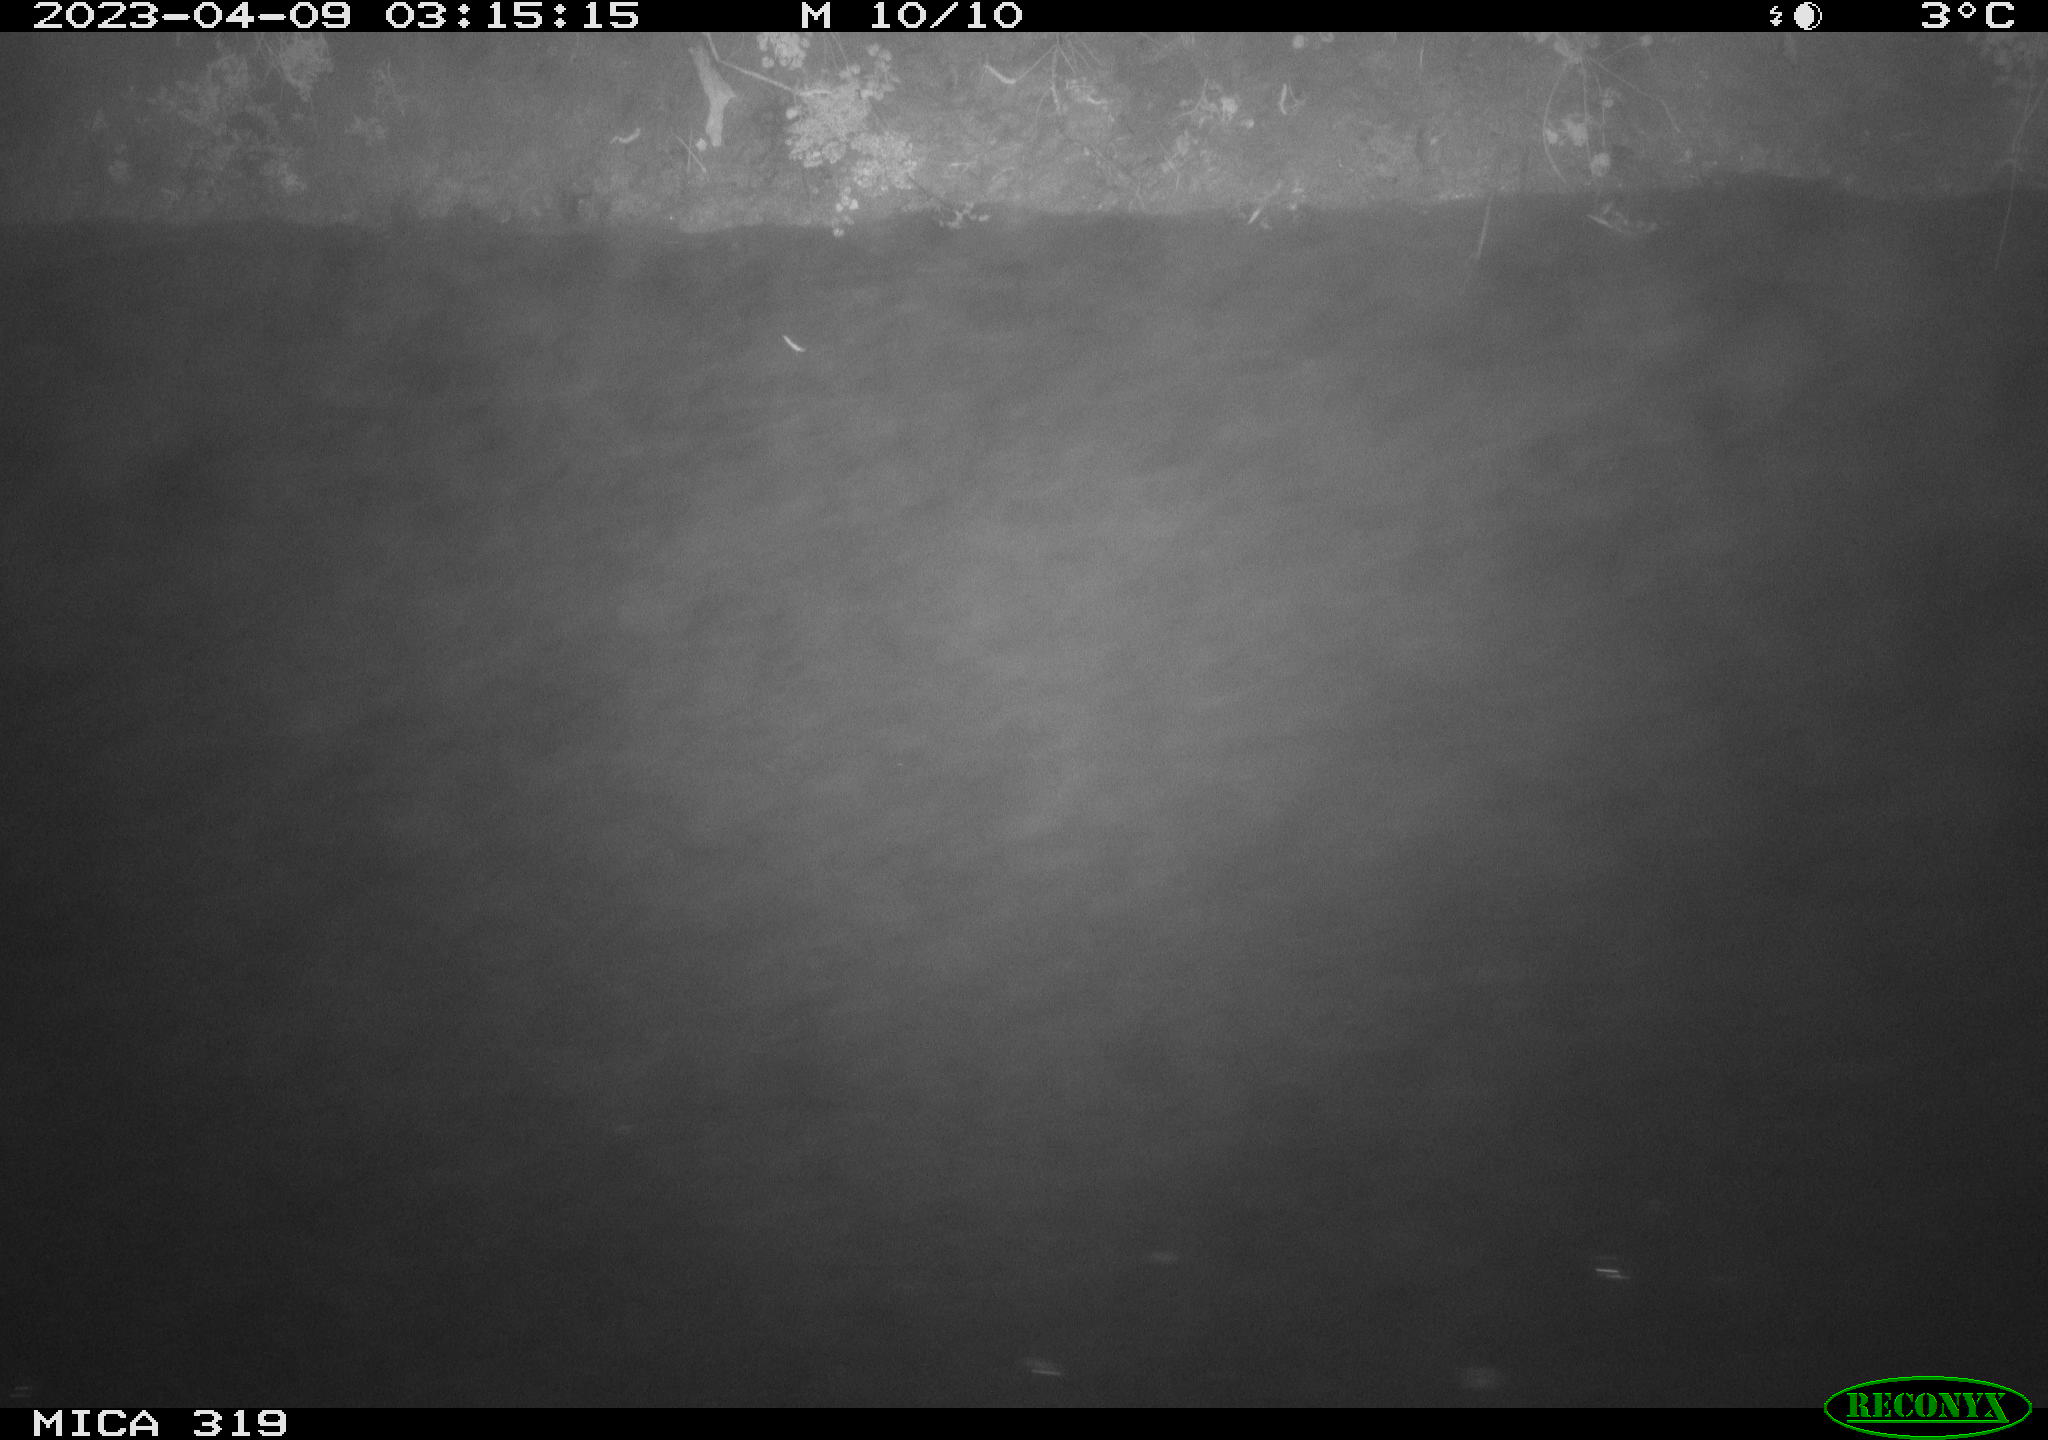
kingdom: Animalia
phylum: Chordata
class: Aves
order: Anseriformes
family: Anatidae
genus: Anas
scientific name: Anas
